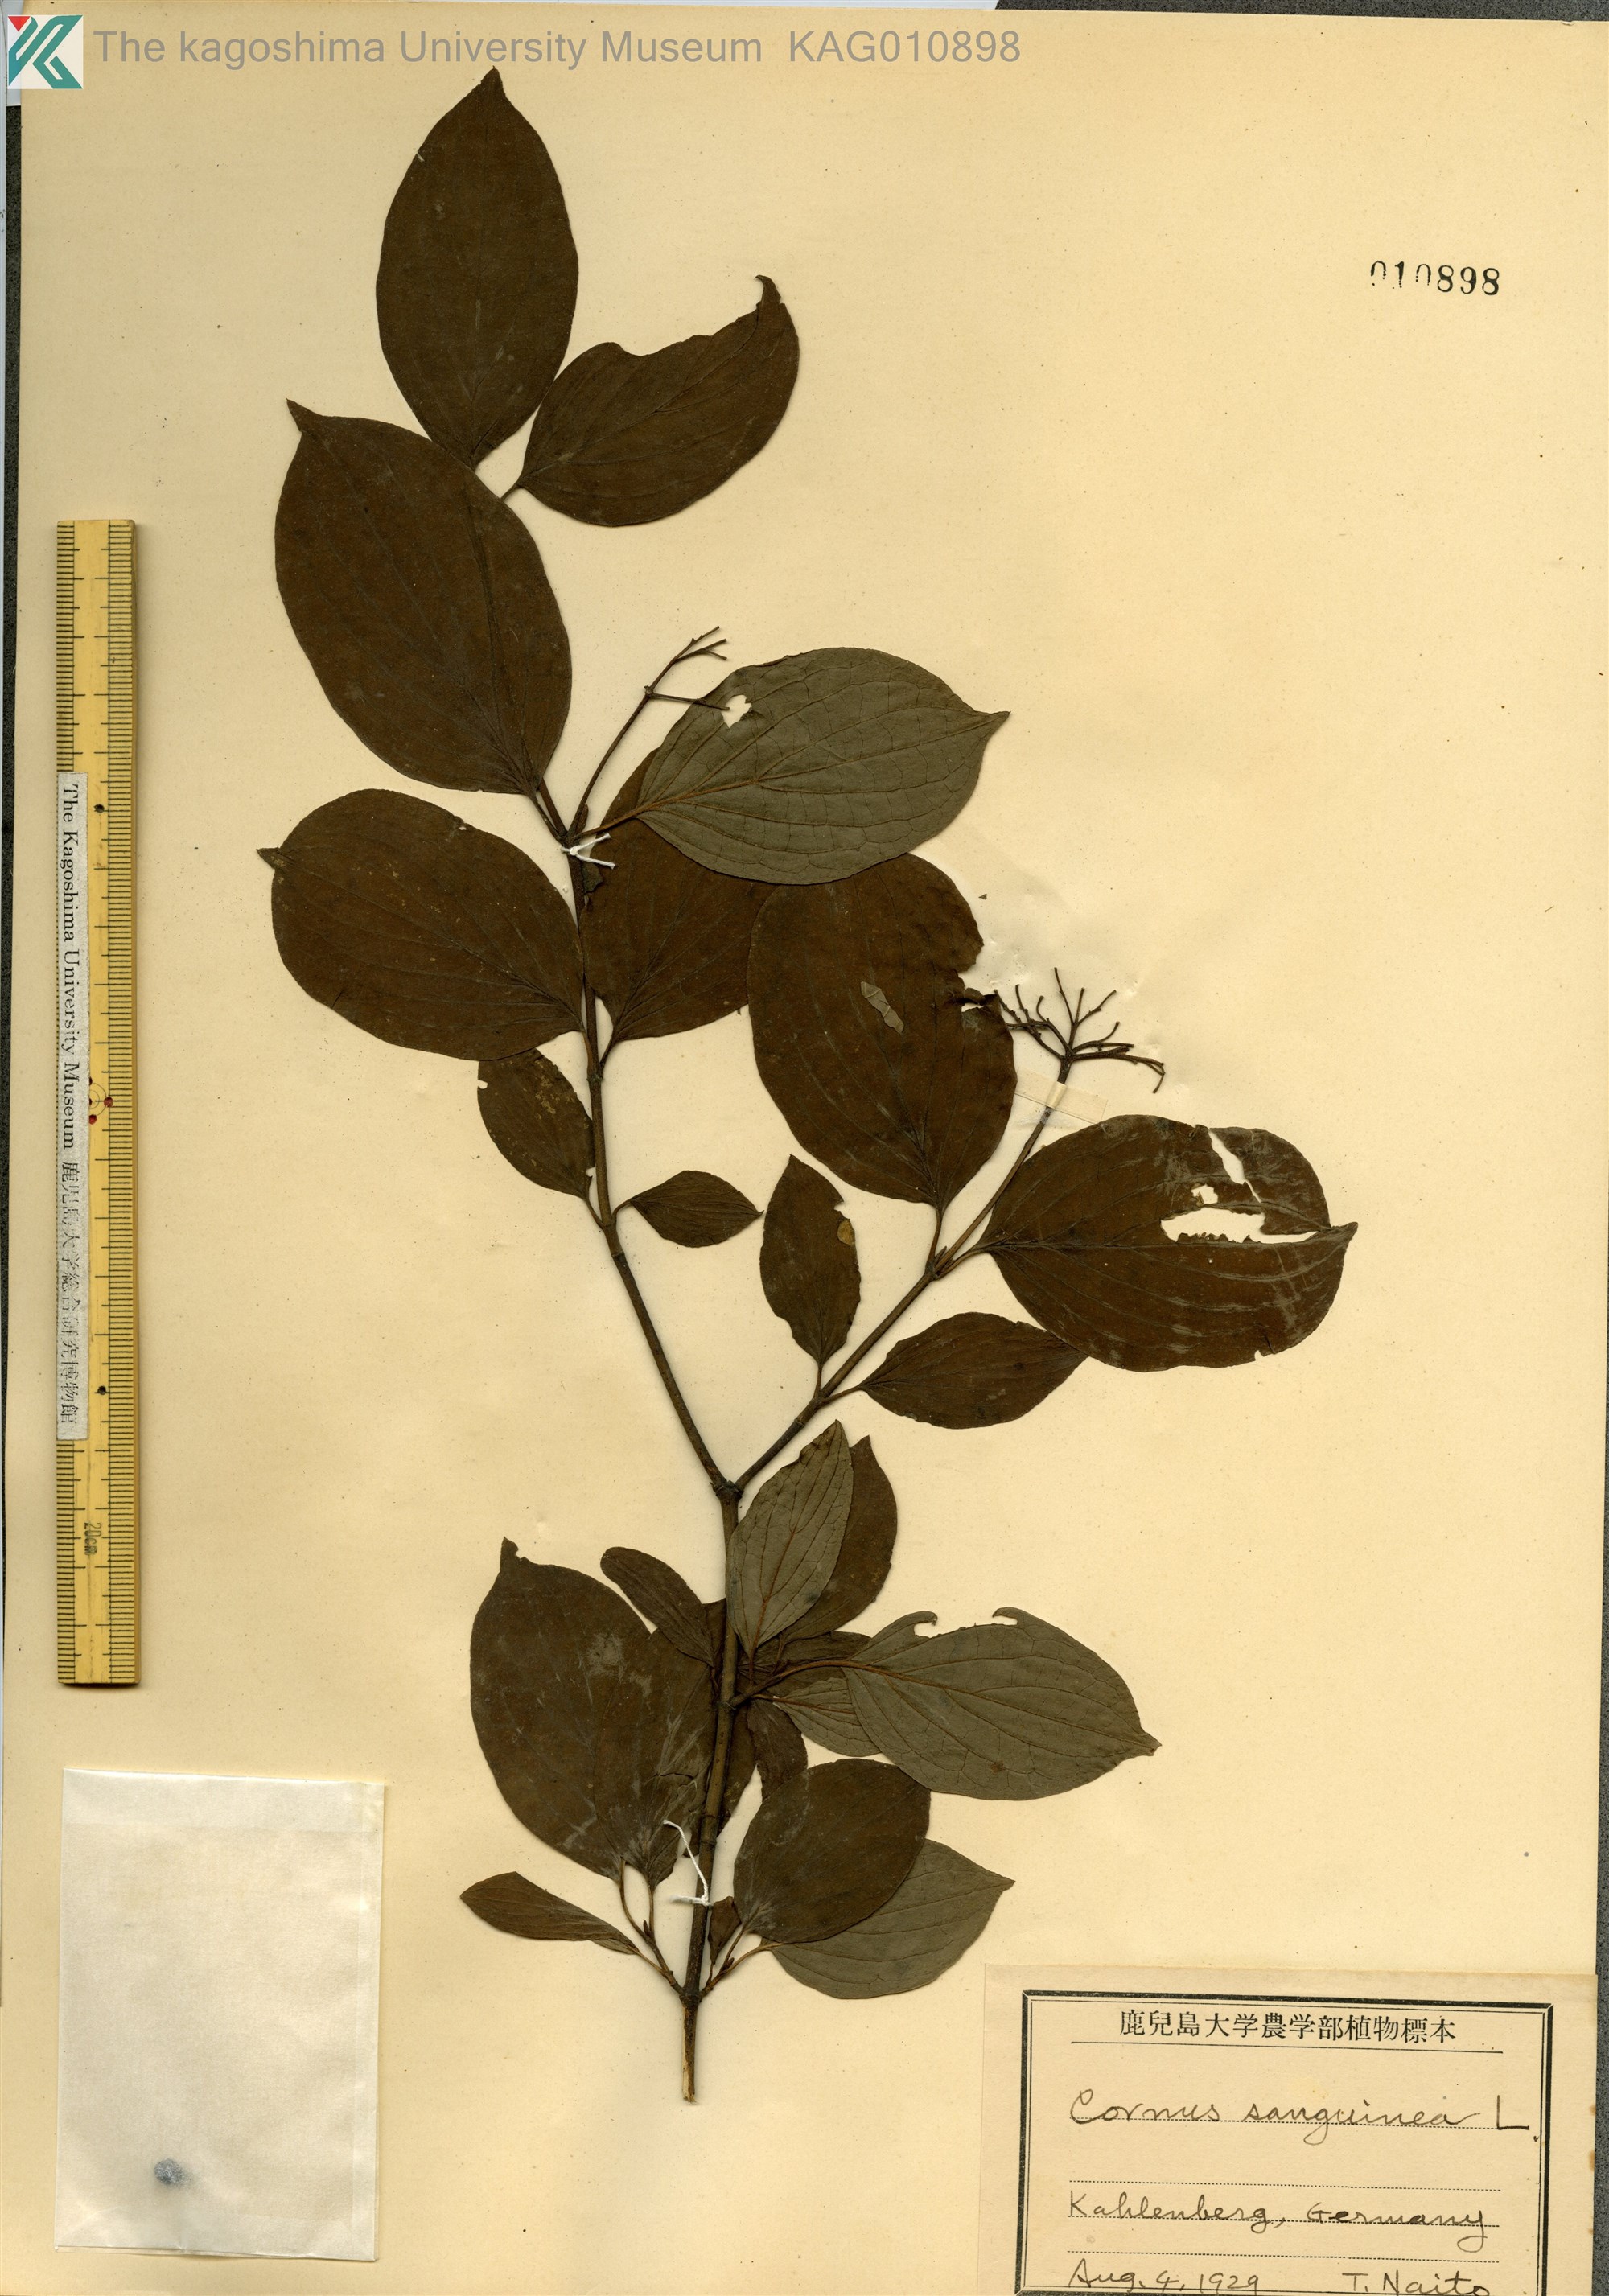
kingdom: Plantae
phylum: Tracheophyta
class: Magnoliopsida
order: Cornales
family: Cornaceae
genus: Cornus
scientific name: Cornus sanguinea
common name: Dogwood
